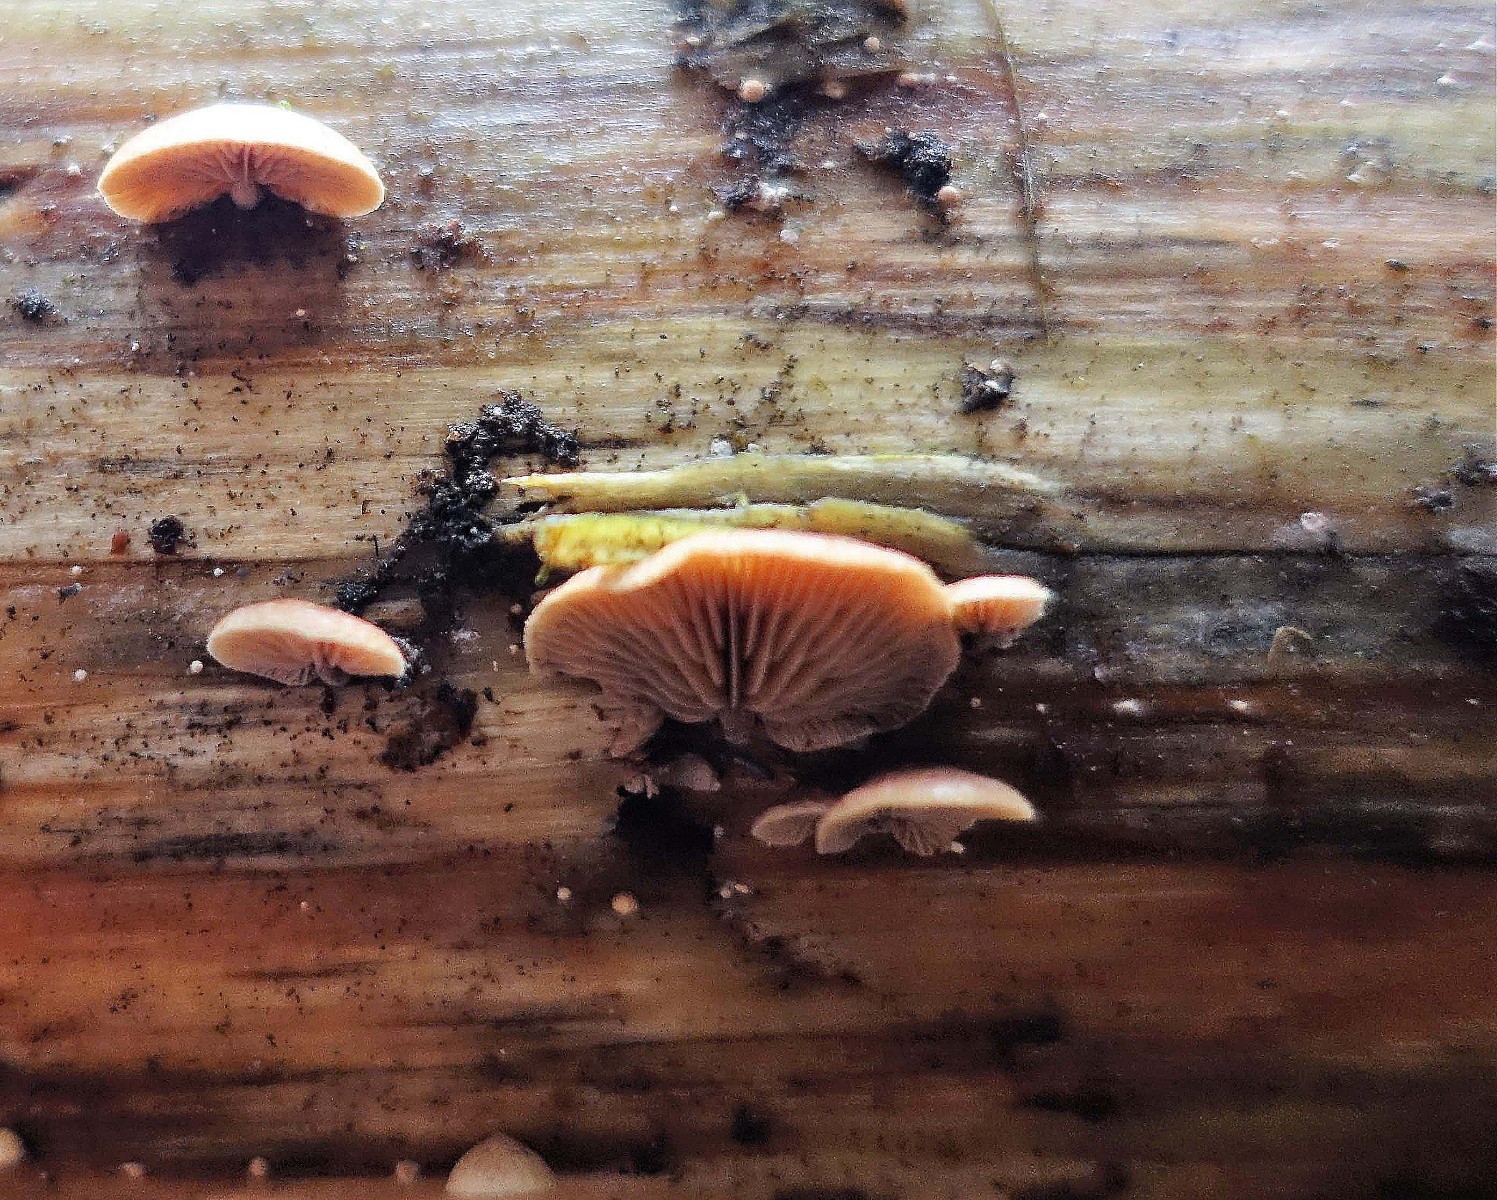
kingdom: Fungi
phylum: Basidiomycota
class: Agaricomycetes
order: Agaricales
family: Strophariaceae
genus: Deconica
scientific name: Deconica horizontalis
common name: ved-stråhat
